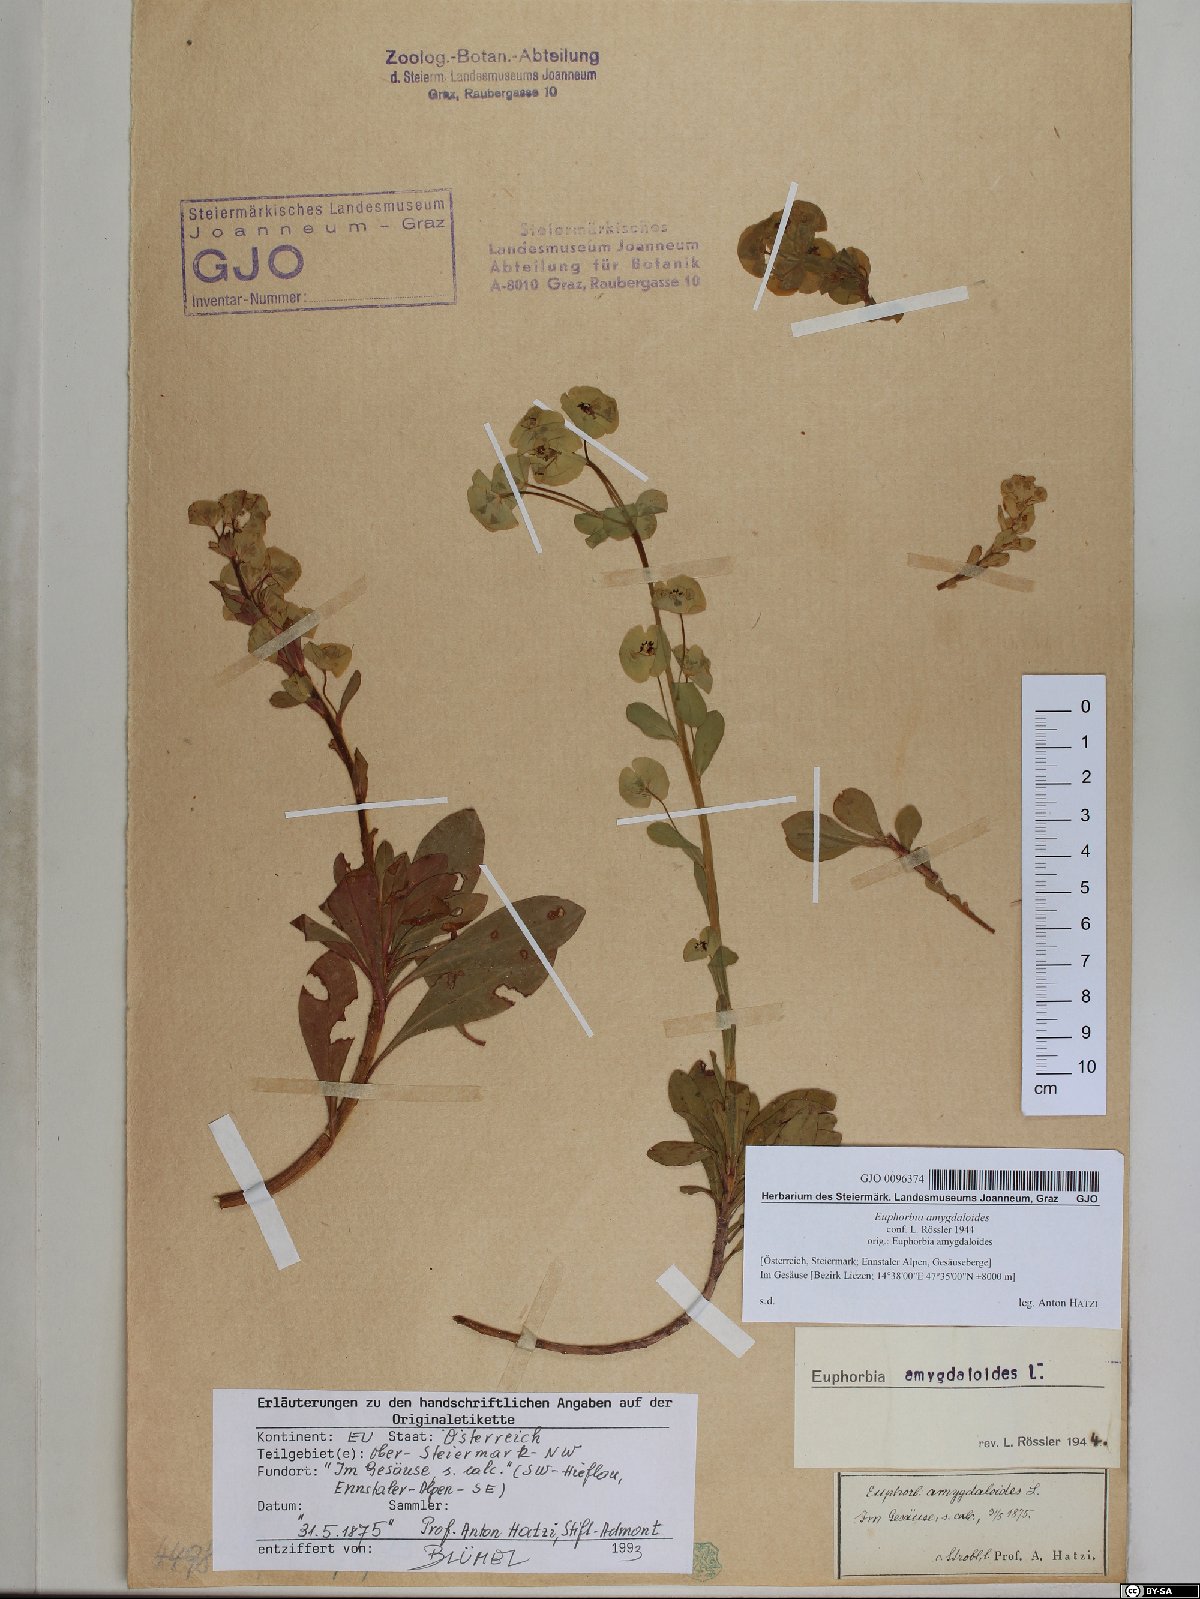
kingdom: Plantae
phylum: Tracheophyta
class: Magnoliopsida
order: Malpighiales
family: Euphorbiaceae
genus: Euphorbia
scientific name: Euphorbia amygdaloides
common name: Wood spurge
